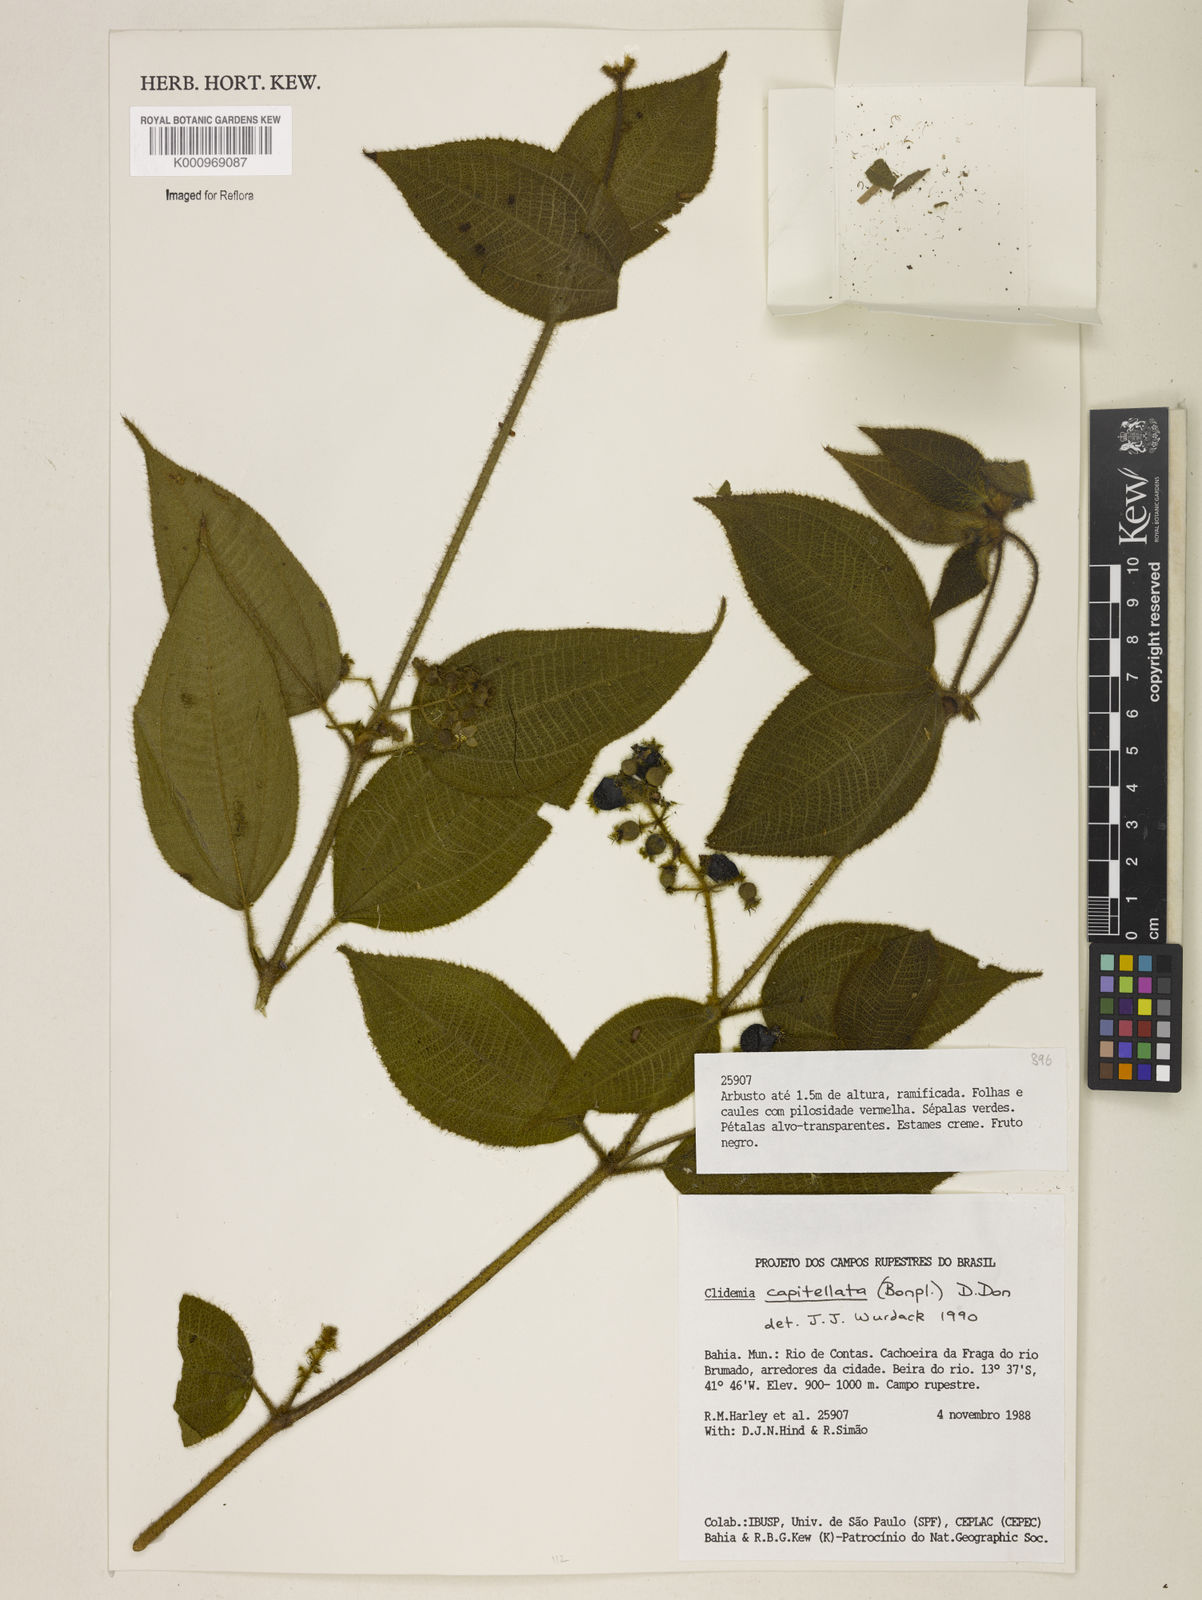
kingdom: Plantae
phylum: Tracheophyta
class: Magnoliopsida
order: Myrtales
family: Melastomataceae
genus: Miconia
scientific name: Miconia dependens
